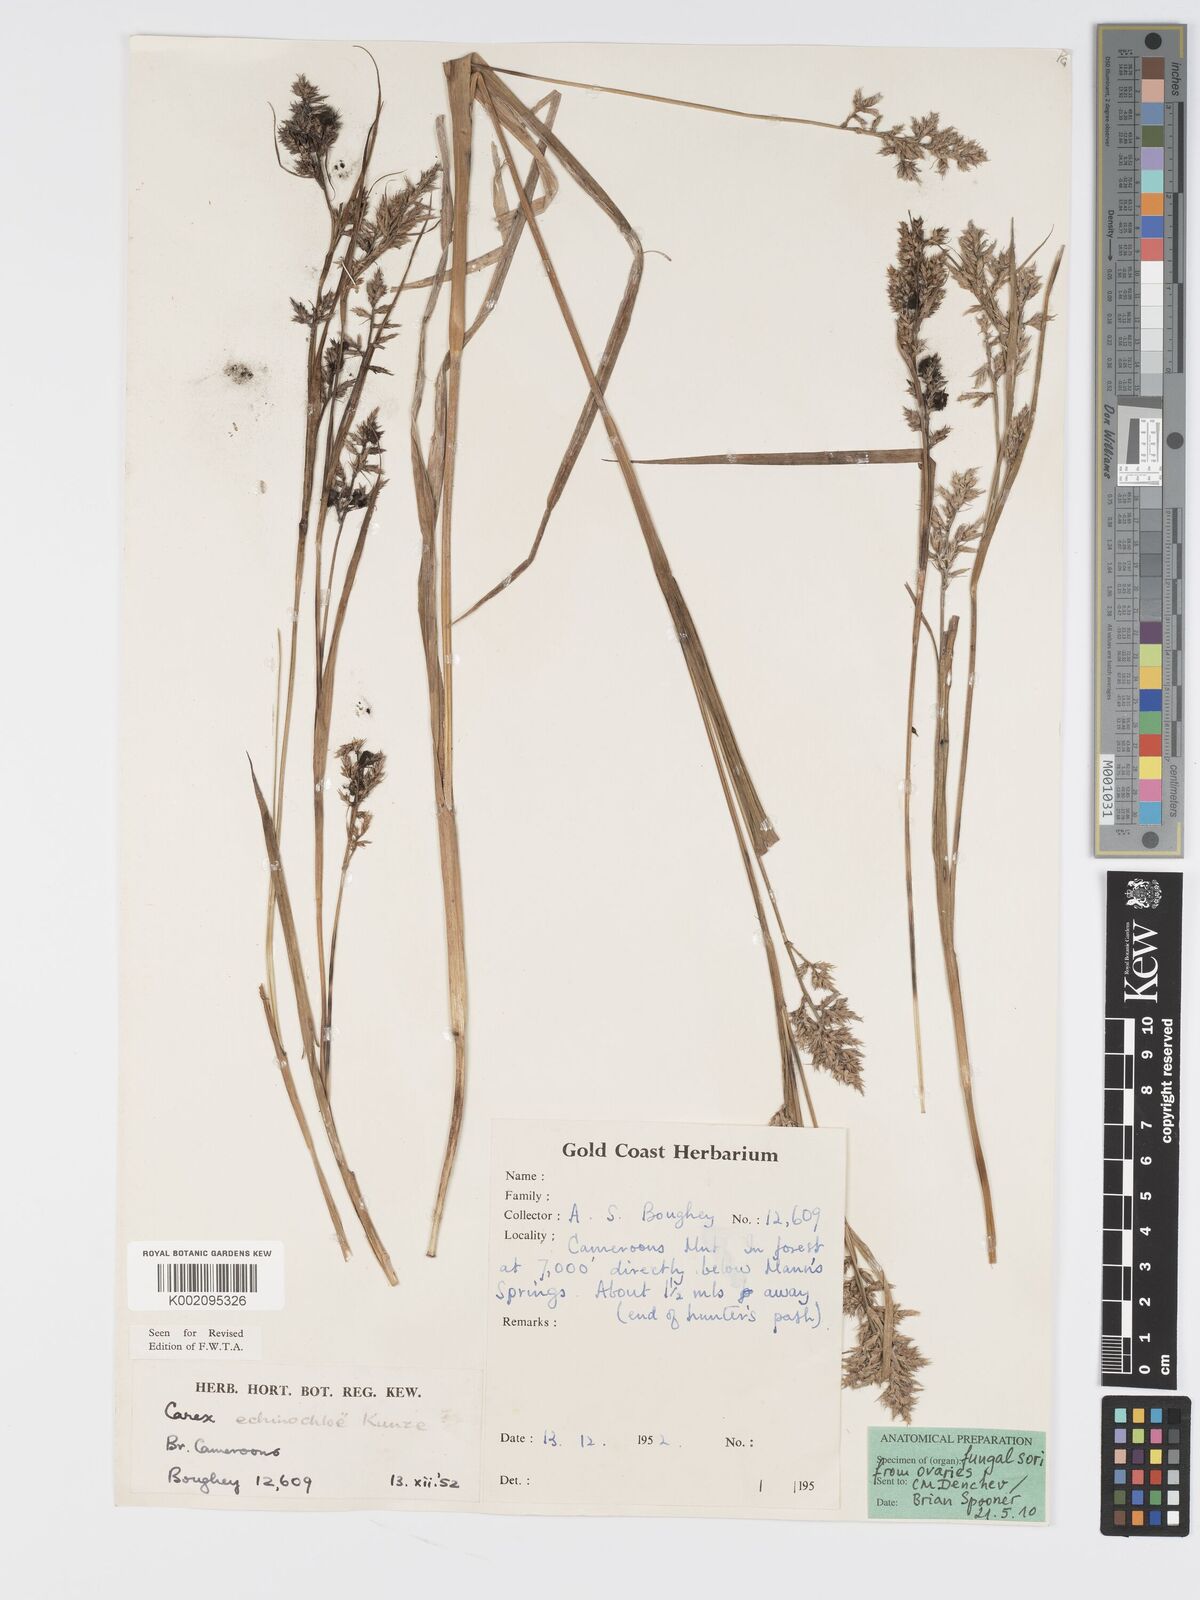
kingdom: Plantae
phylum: Tracheophyta
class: Liliopsida
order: Poales
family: Cyperaceae
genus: Carex
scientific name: Carex echinochloe
